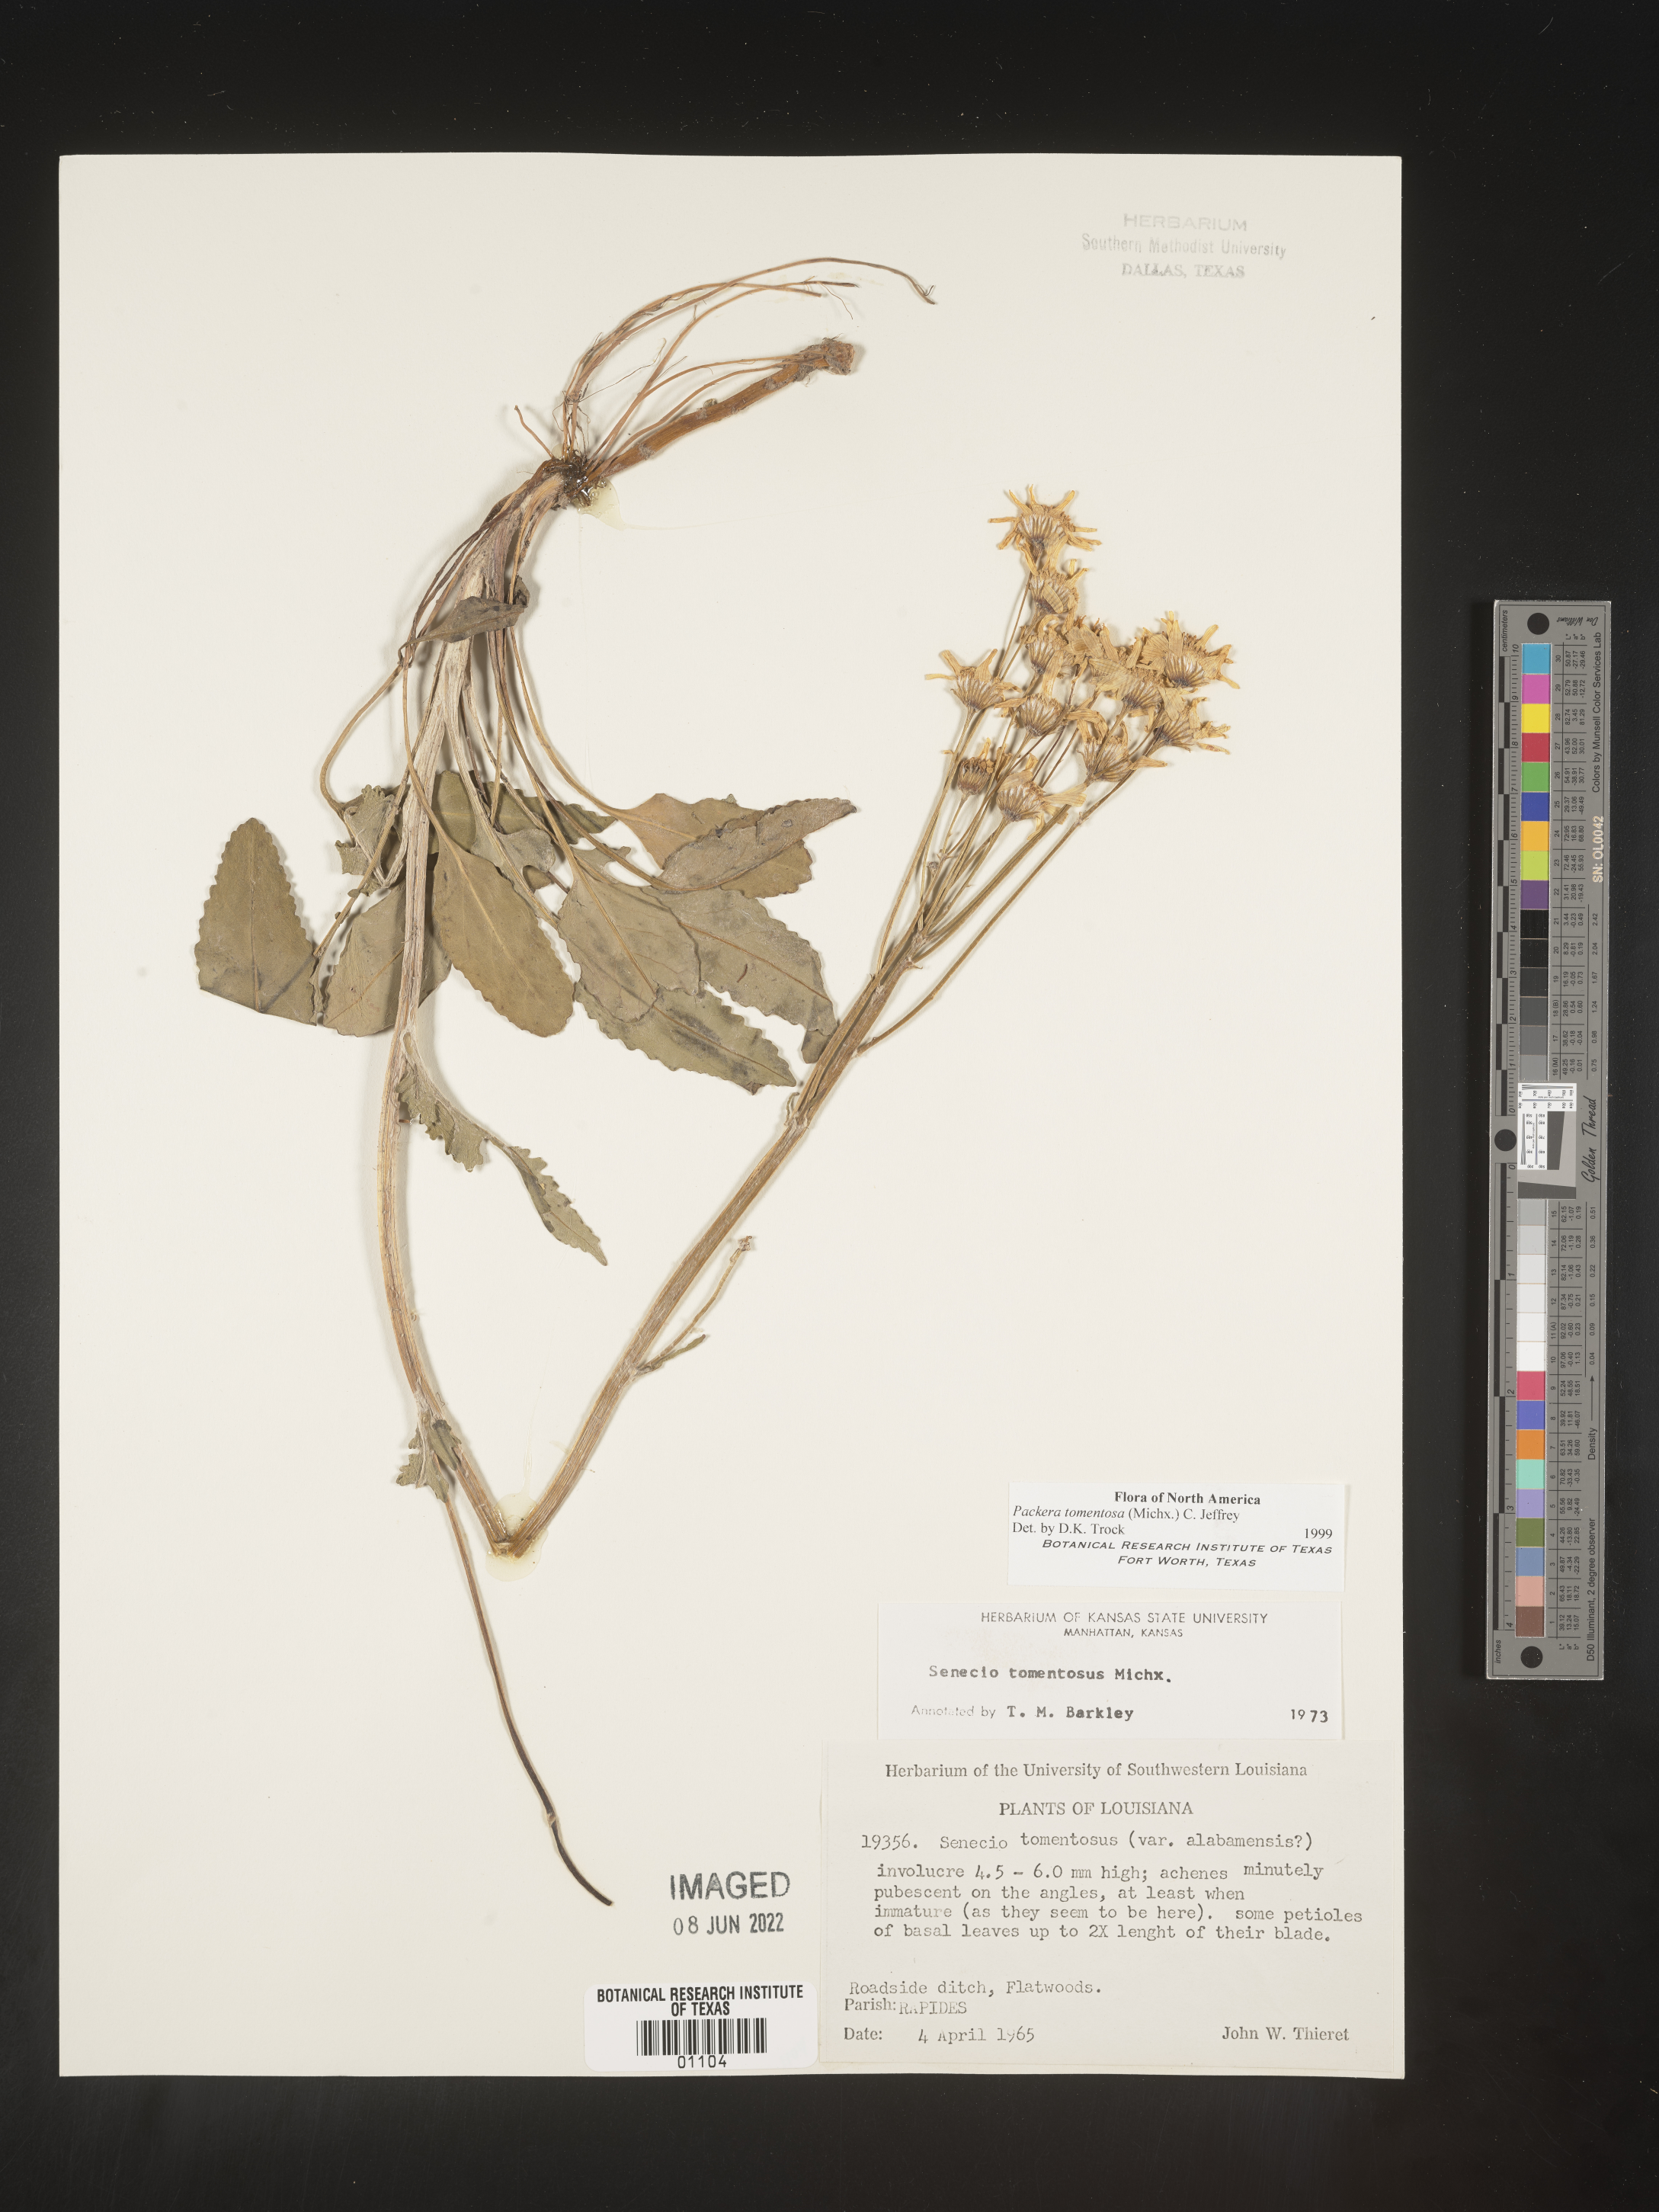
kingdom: Plantae
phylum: Tracheophyta
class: Magnoliopsida
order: Asterales
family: Asteraceae
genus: Packera
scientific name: Packera dubia
